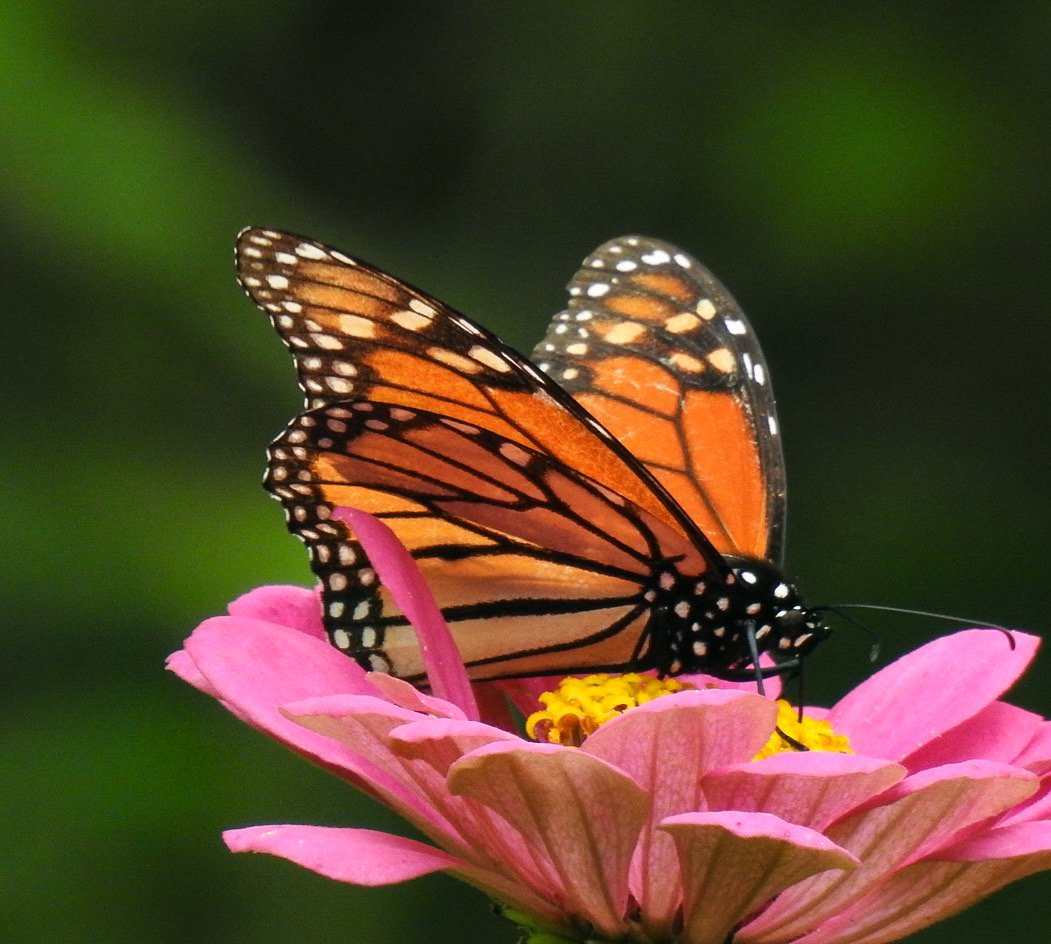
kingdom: Animalia
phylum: Arthropoda
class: Insecta
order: Lepidoptera
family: Nymphalidae
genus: Danaus
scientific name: Danaus plexippus
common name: Monarch
